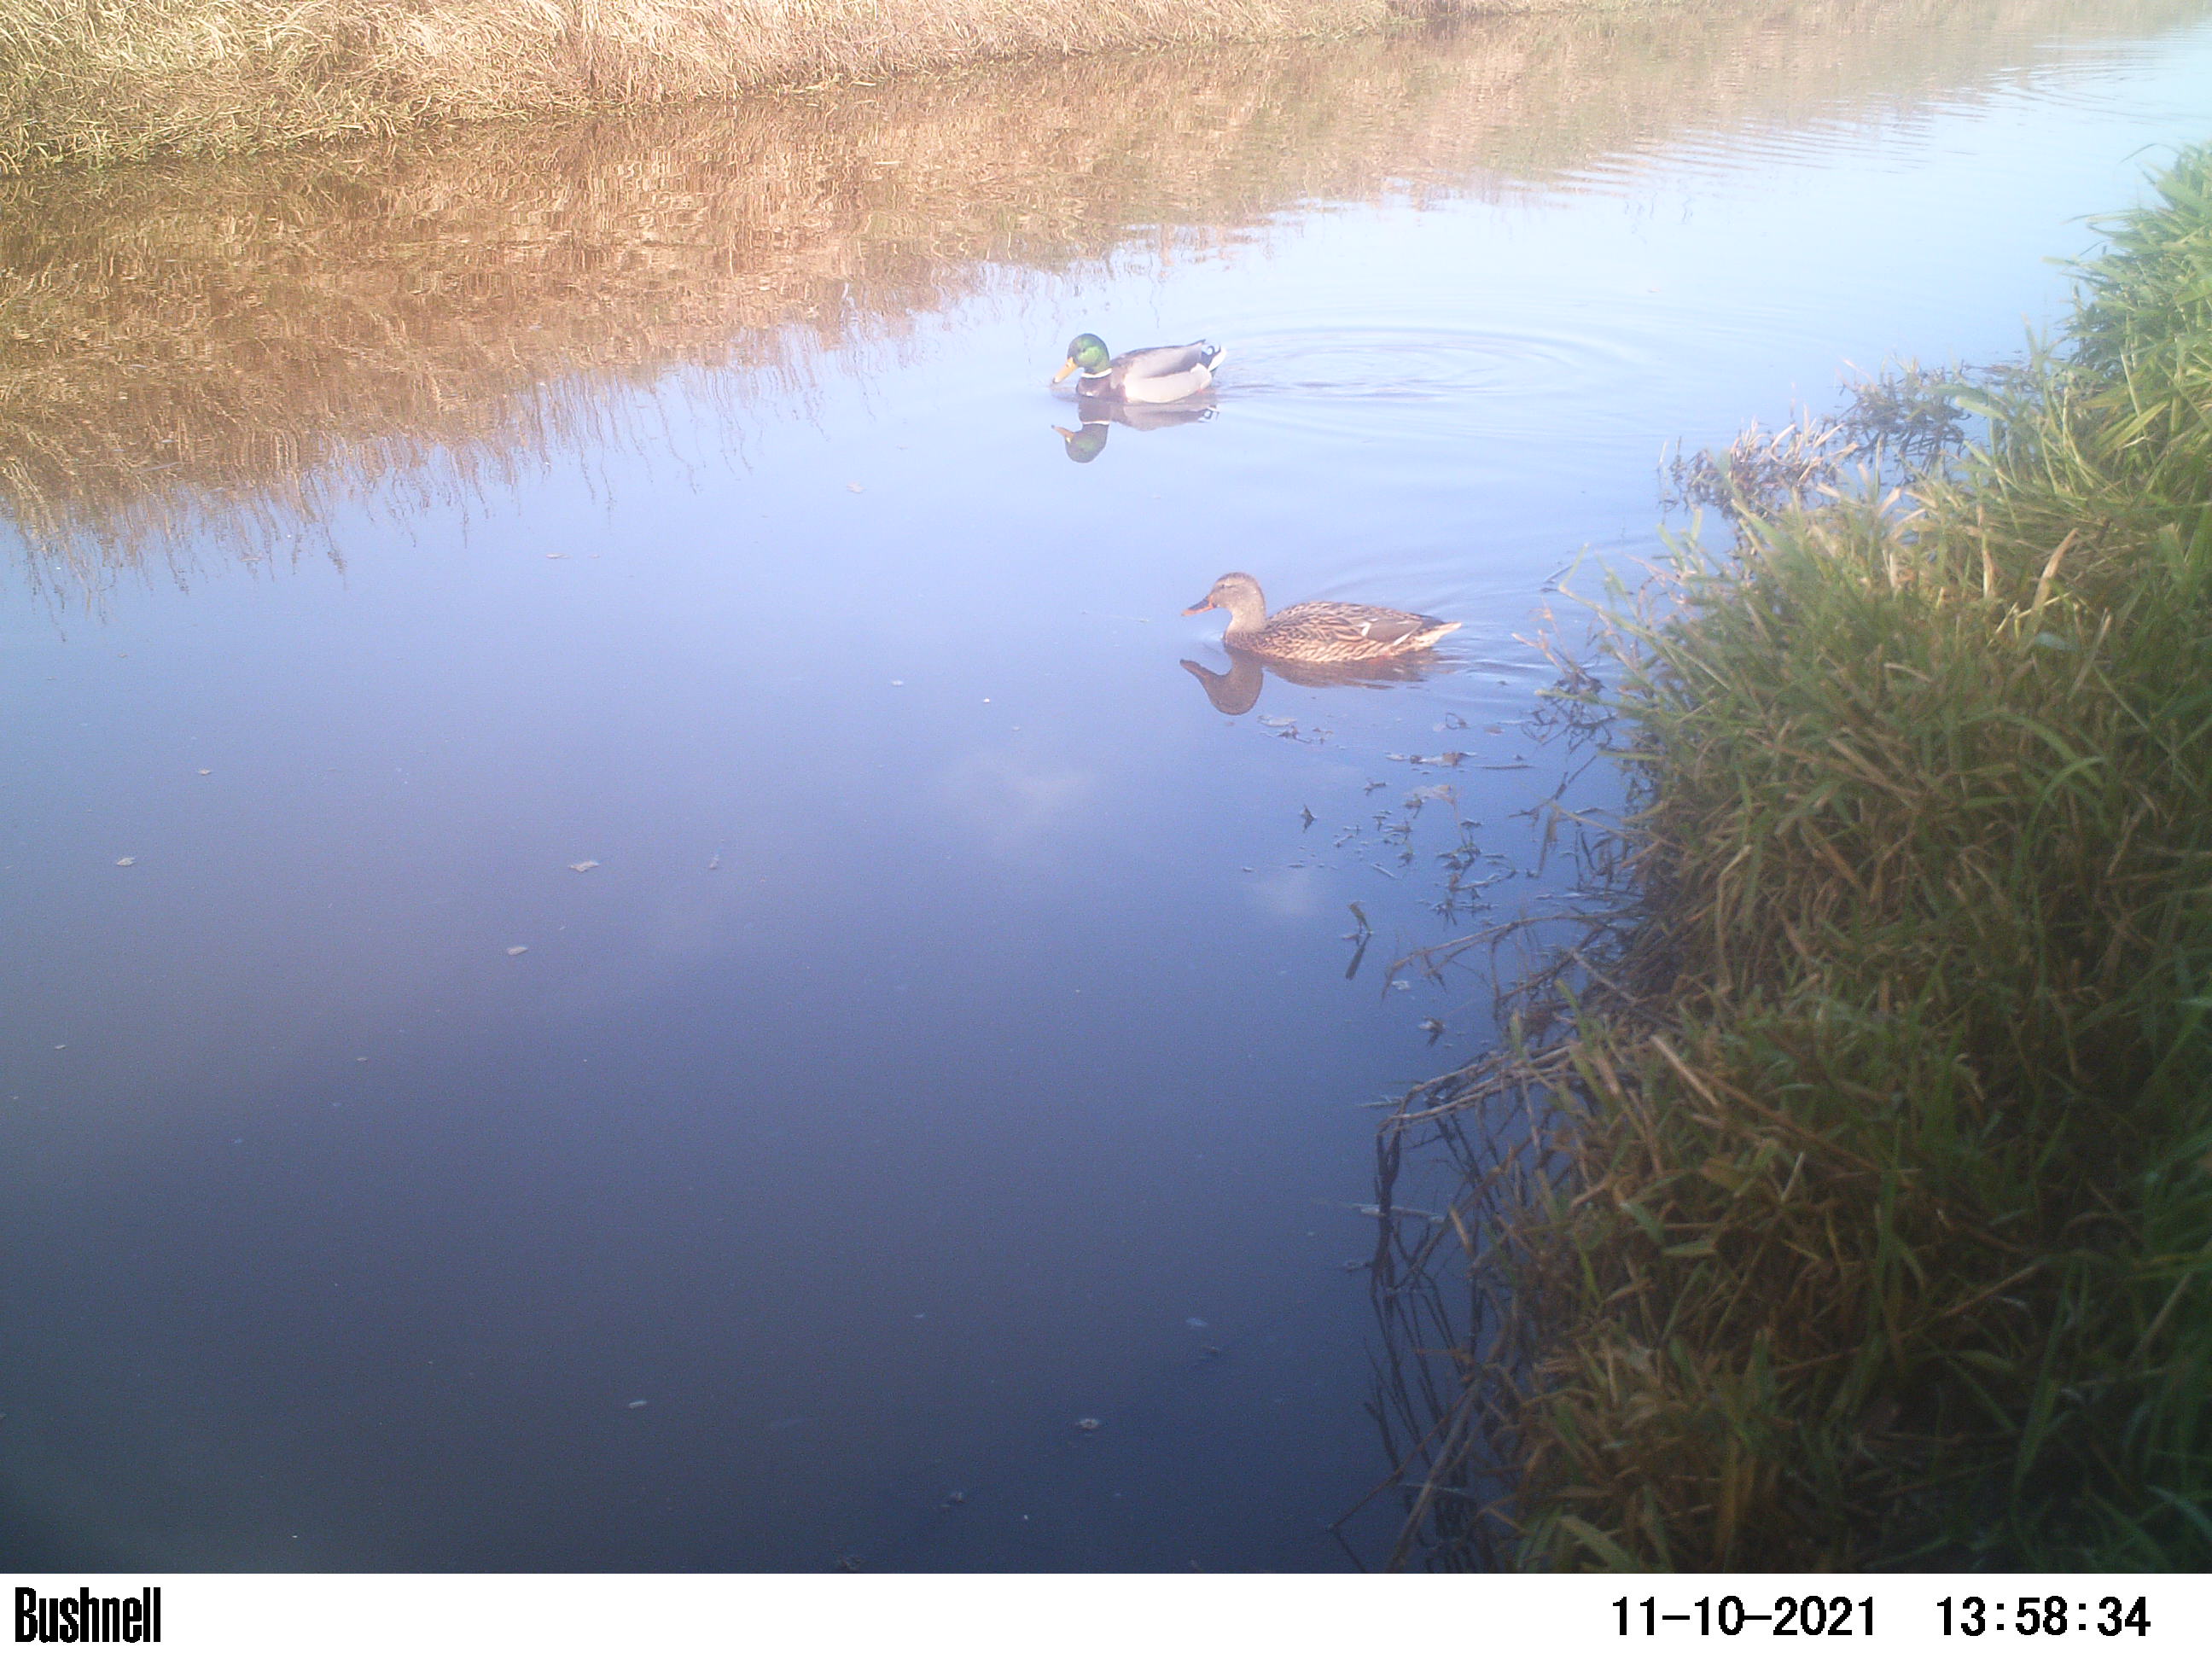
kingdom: Animalia
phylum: Chordata
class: Aves
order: Anseriformes
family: Anatidae
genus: Anas
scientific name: Anas
